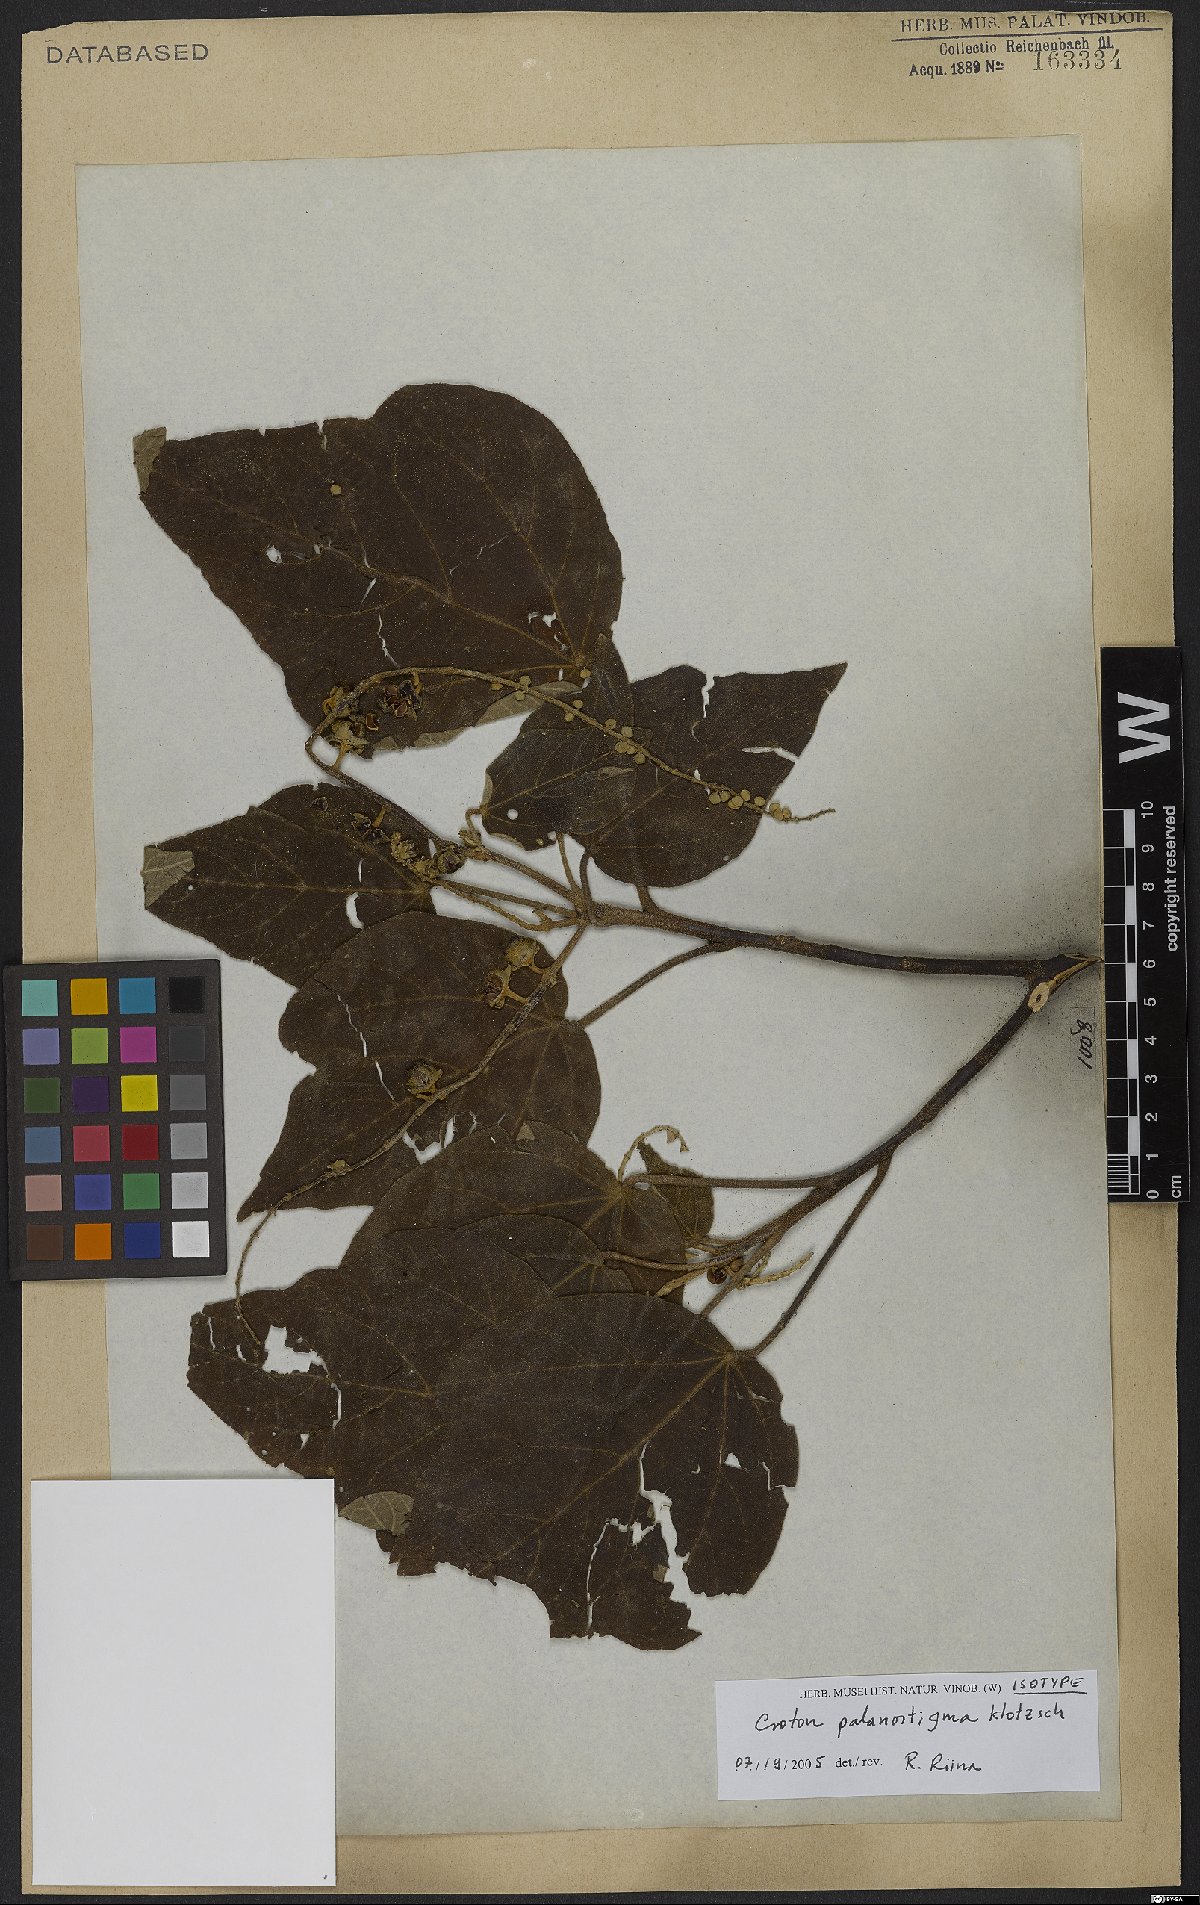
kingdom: Plantae
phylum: Tracheophyta
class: Magnoliopsida
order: Malpighiales
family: Euphorbiaceae
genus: Croton
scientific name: Croton palanostigma
